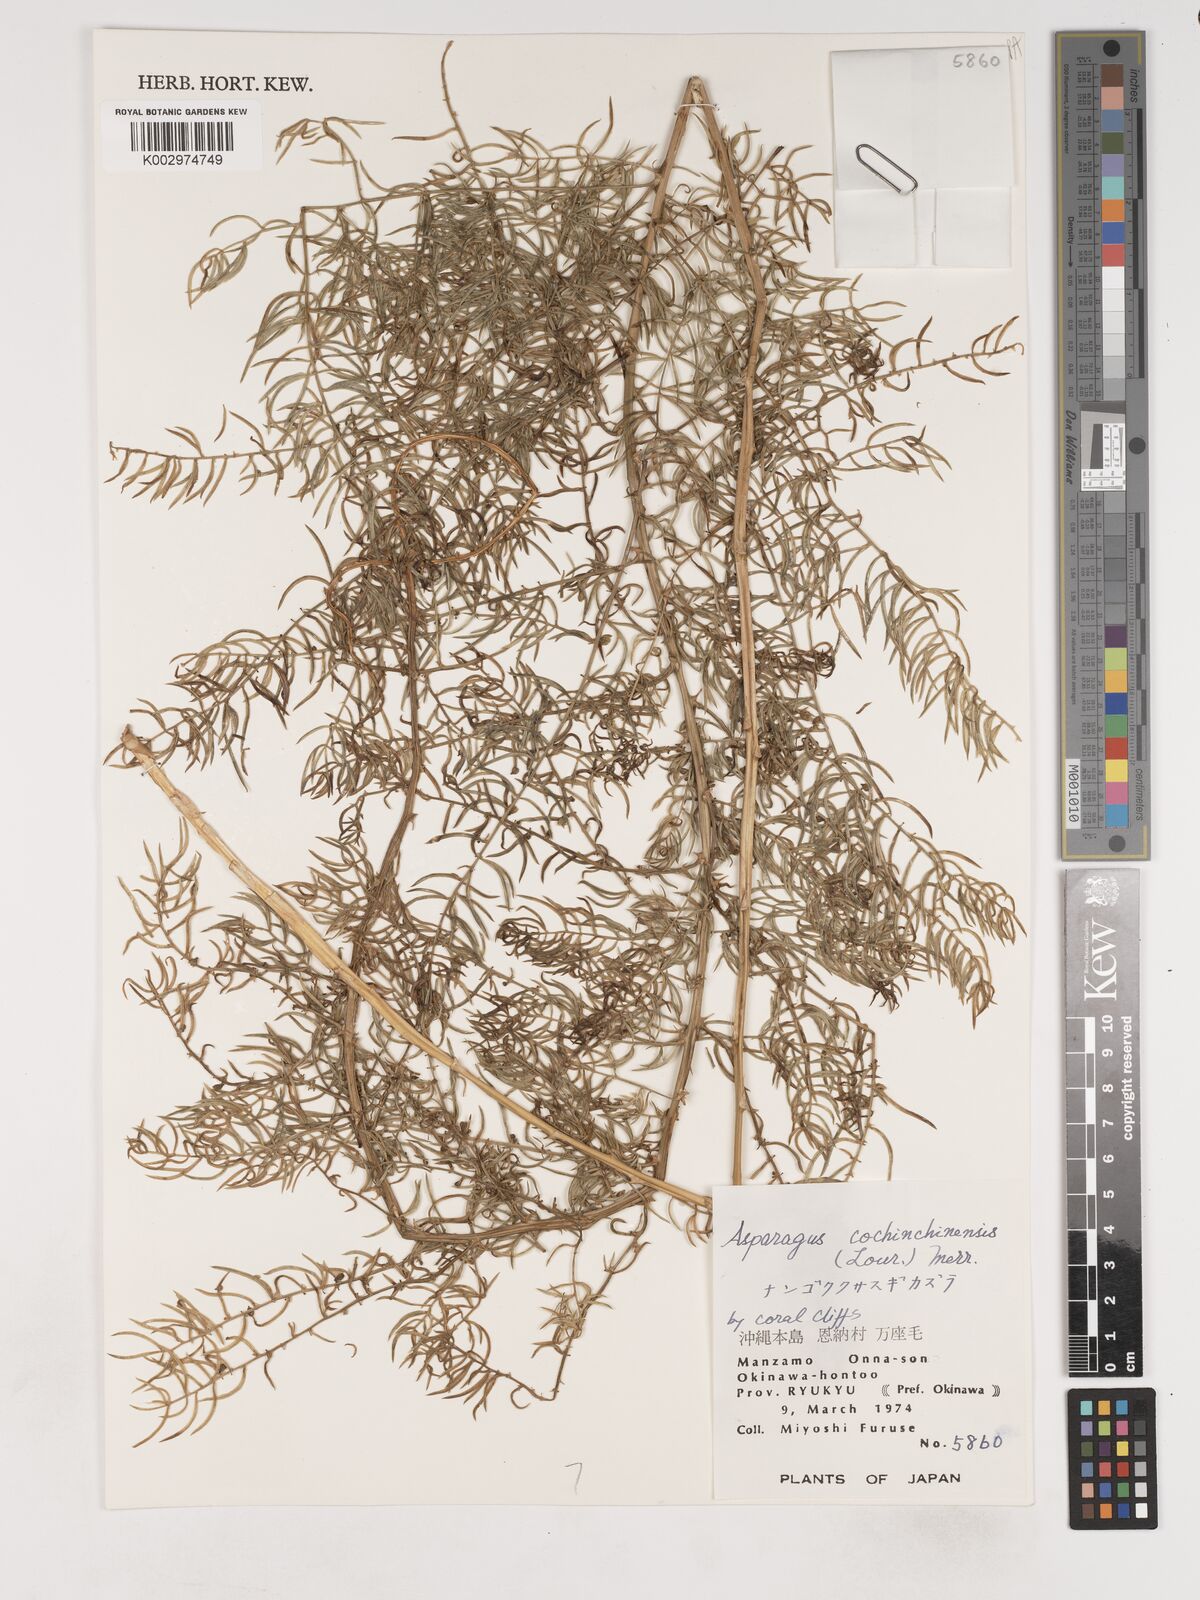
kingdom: Plantae
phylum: Tracheophyta
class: Liliopsida
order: Asparagales
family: Asparagaceae
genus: Asparagus
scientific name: Asparagus cochinchinensis
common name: Chinese asparagus
